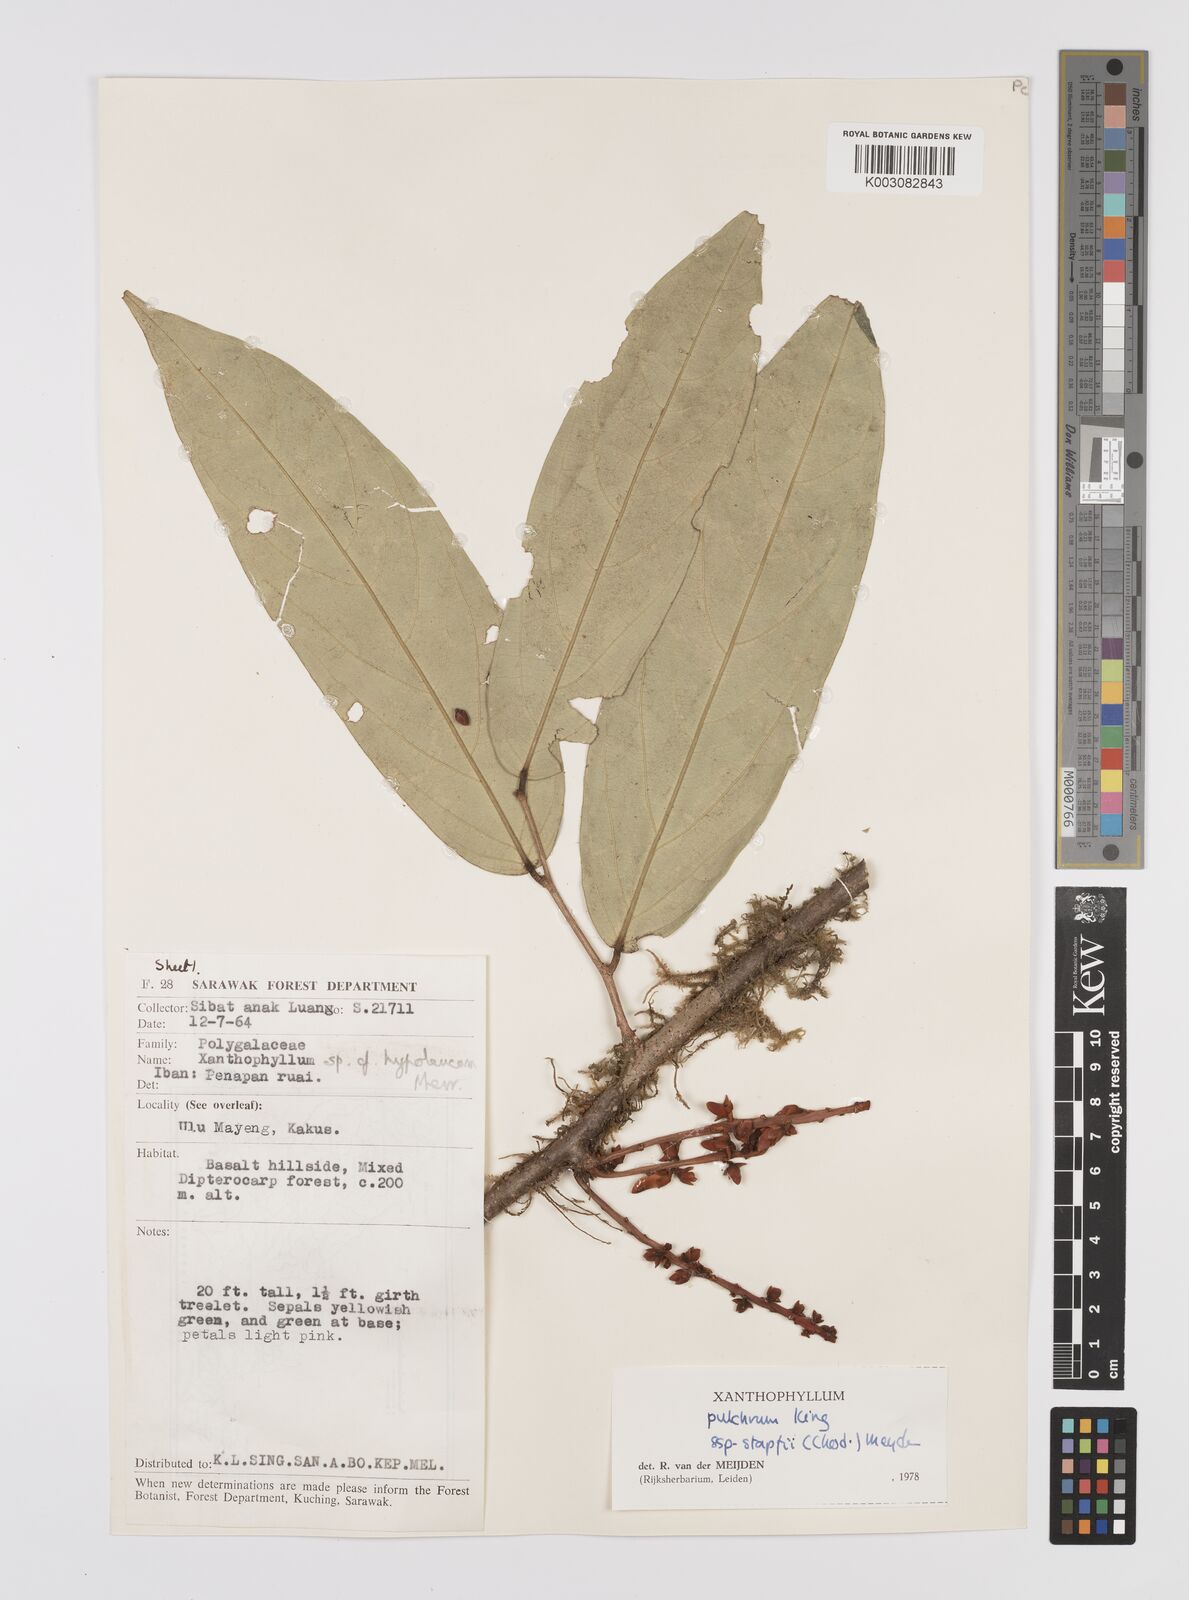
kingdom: Plantae
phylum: Tracheophyta
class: Magnoliopsida
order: Fabales
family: Polygalaceae
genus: Xanthophyllum
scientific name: Xanthophyllum pulchrum
